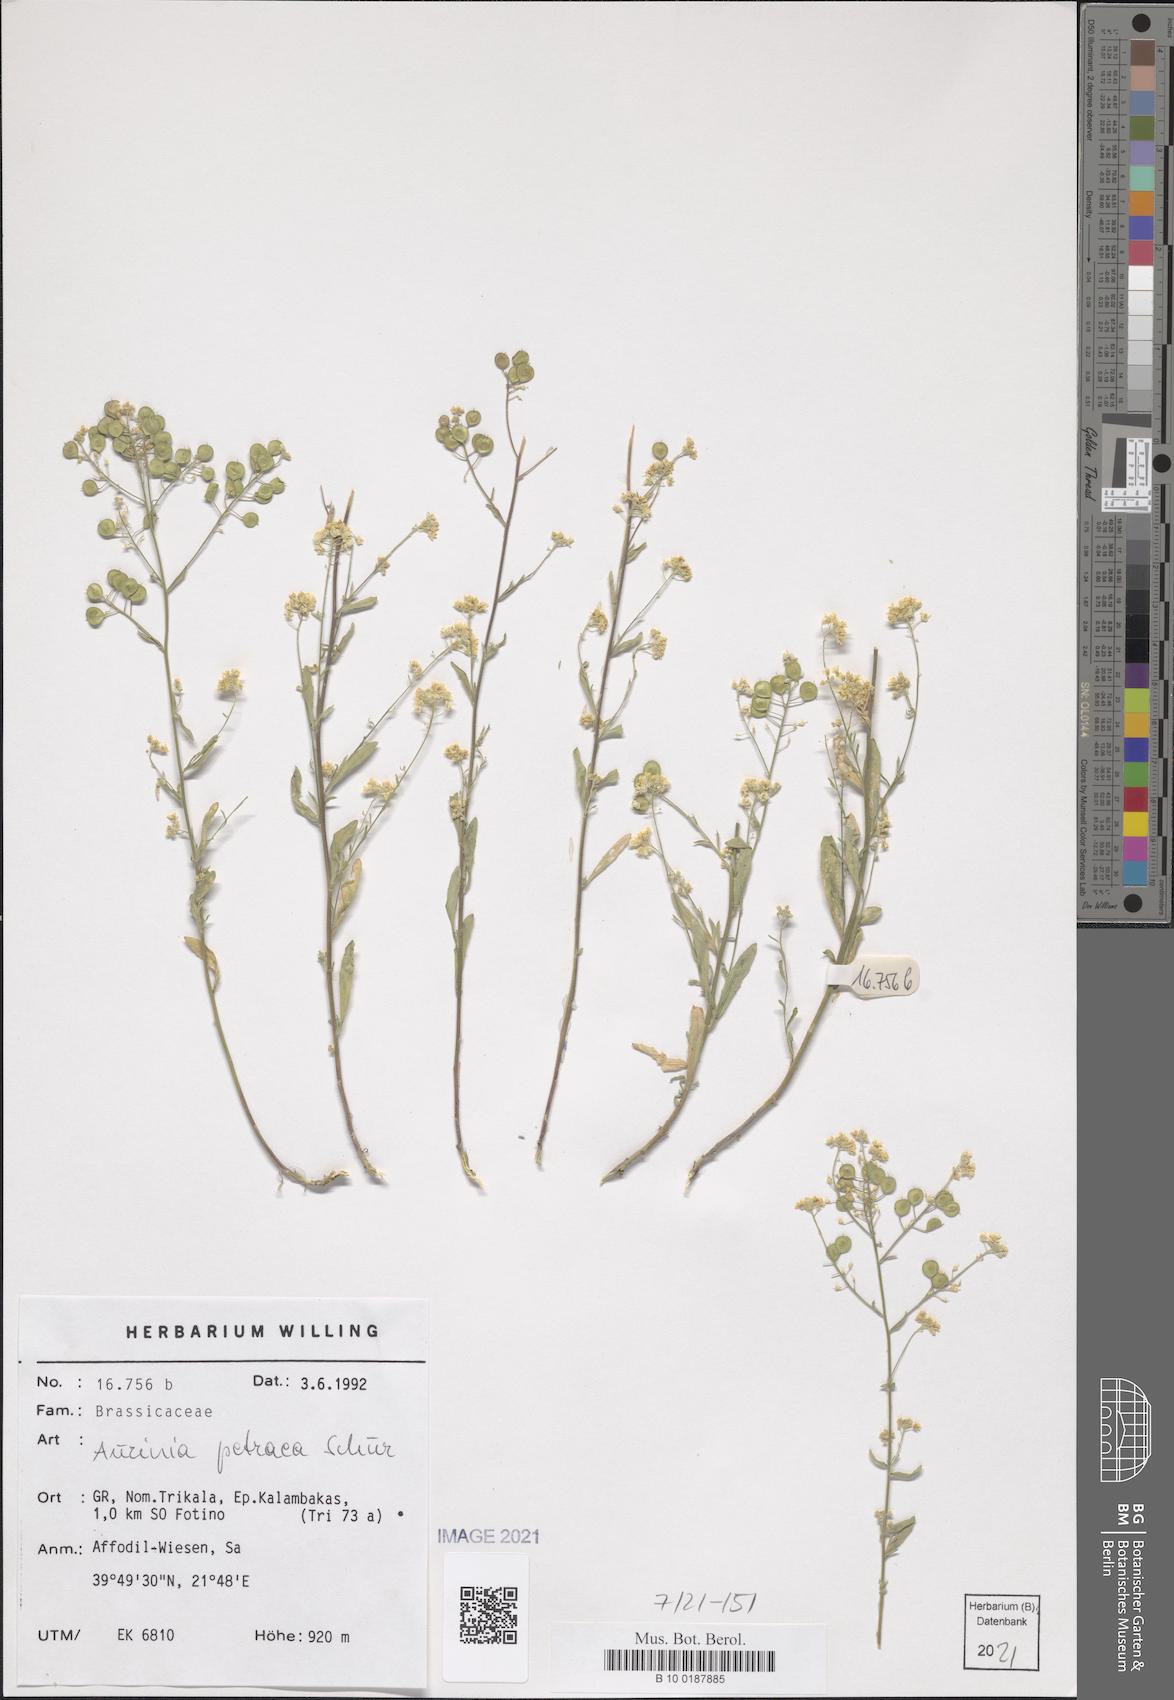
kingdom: Plantae
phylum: Tracheophyta
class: Magnoliopsida
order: Brassicales
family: Brassicaceae
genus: Aurinia
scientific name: Aurinia petraea
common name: Goldentuft
